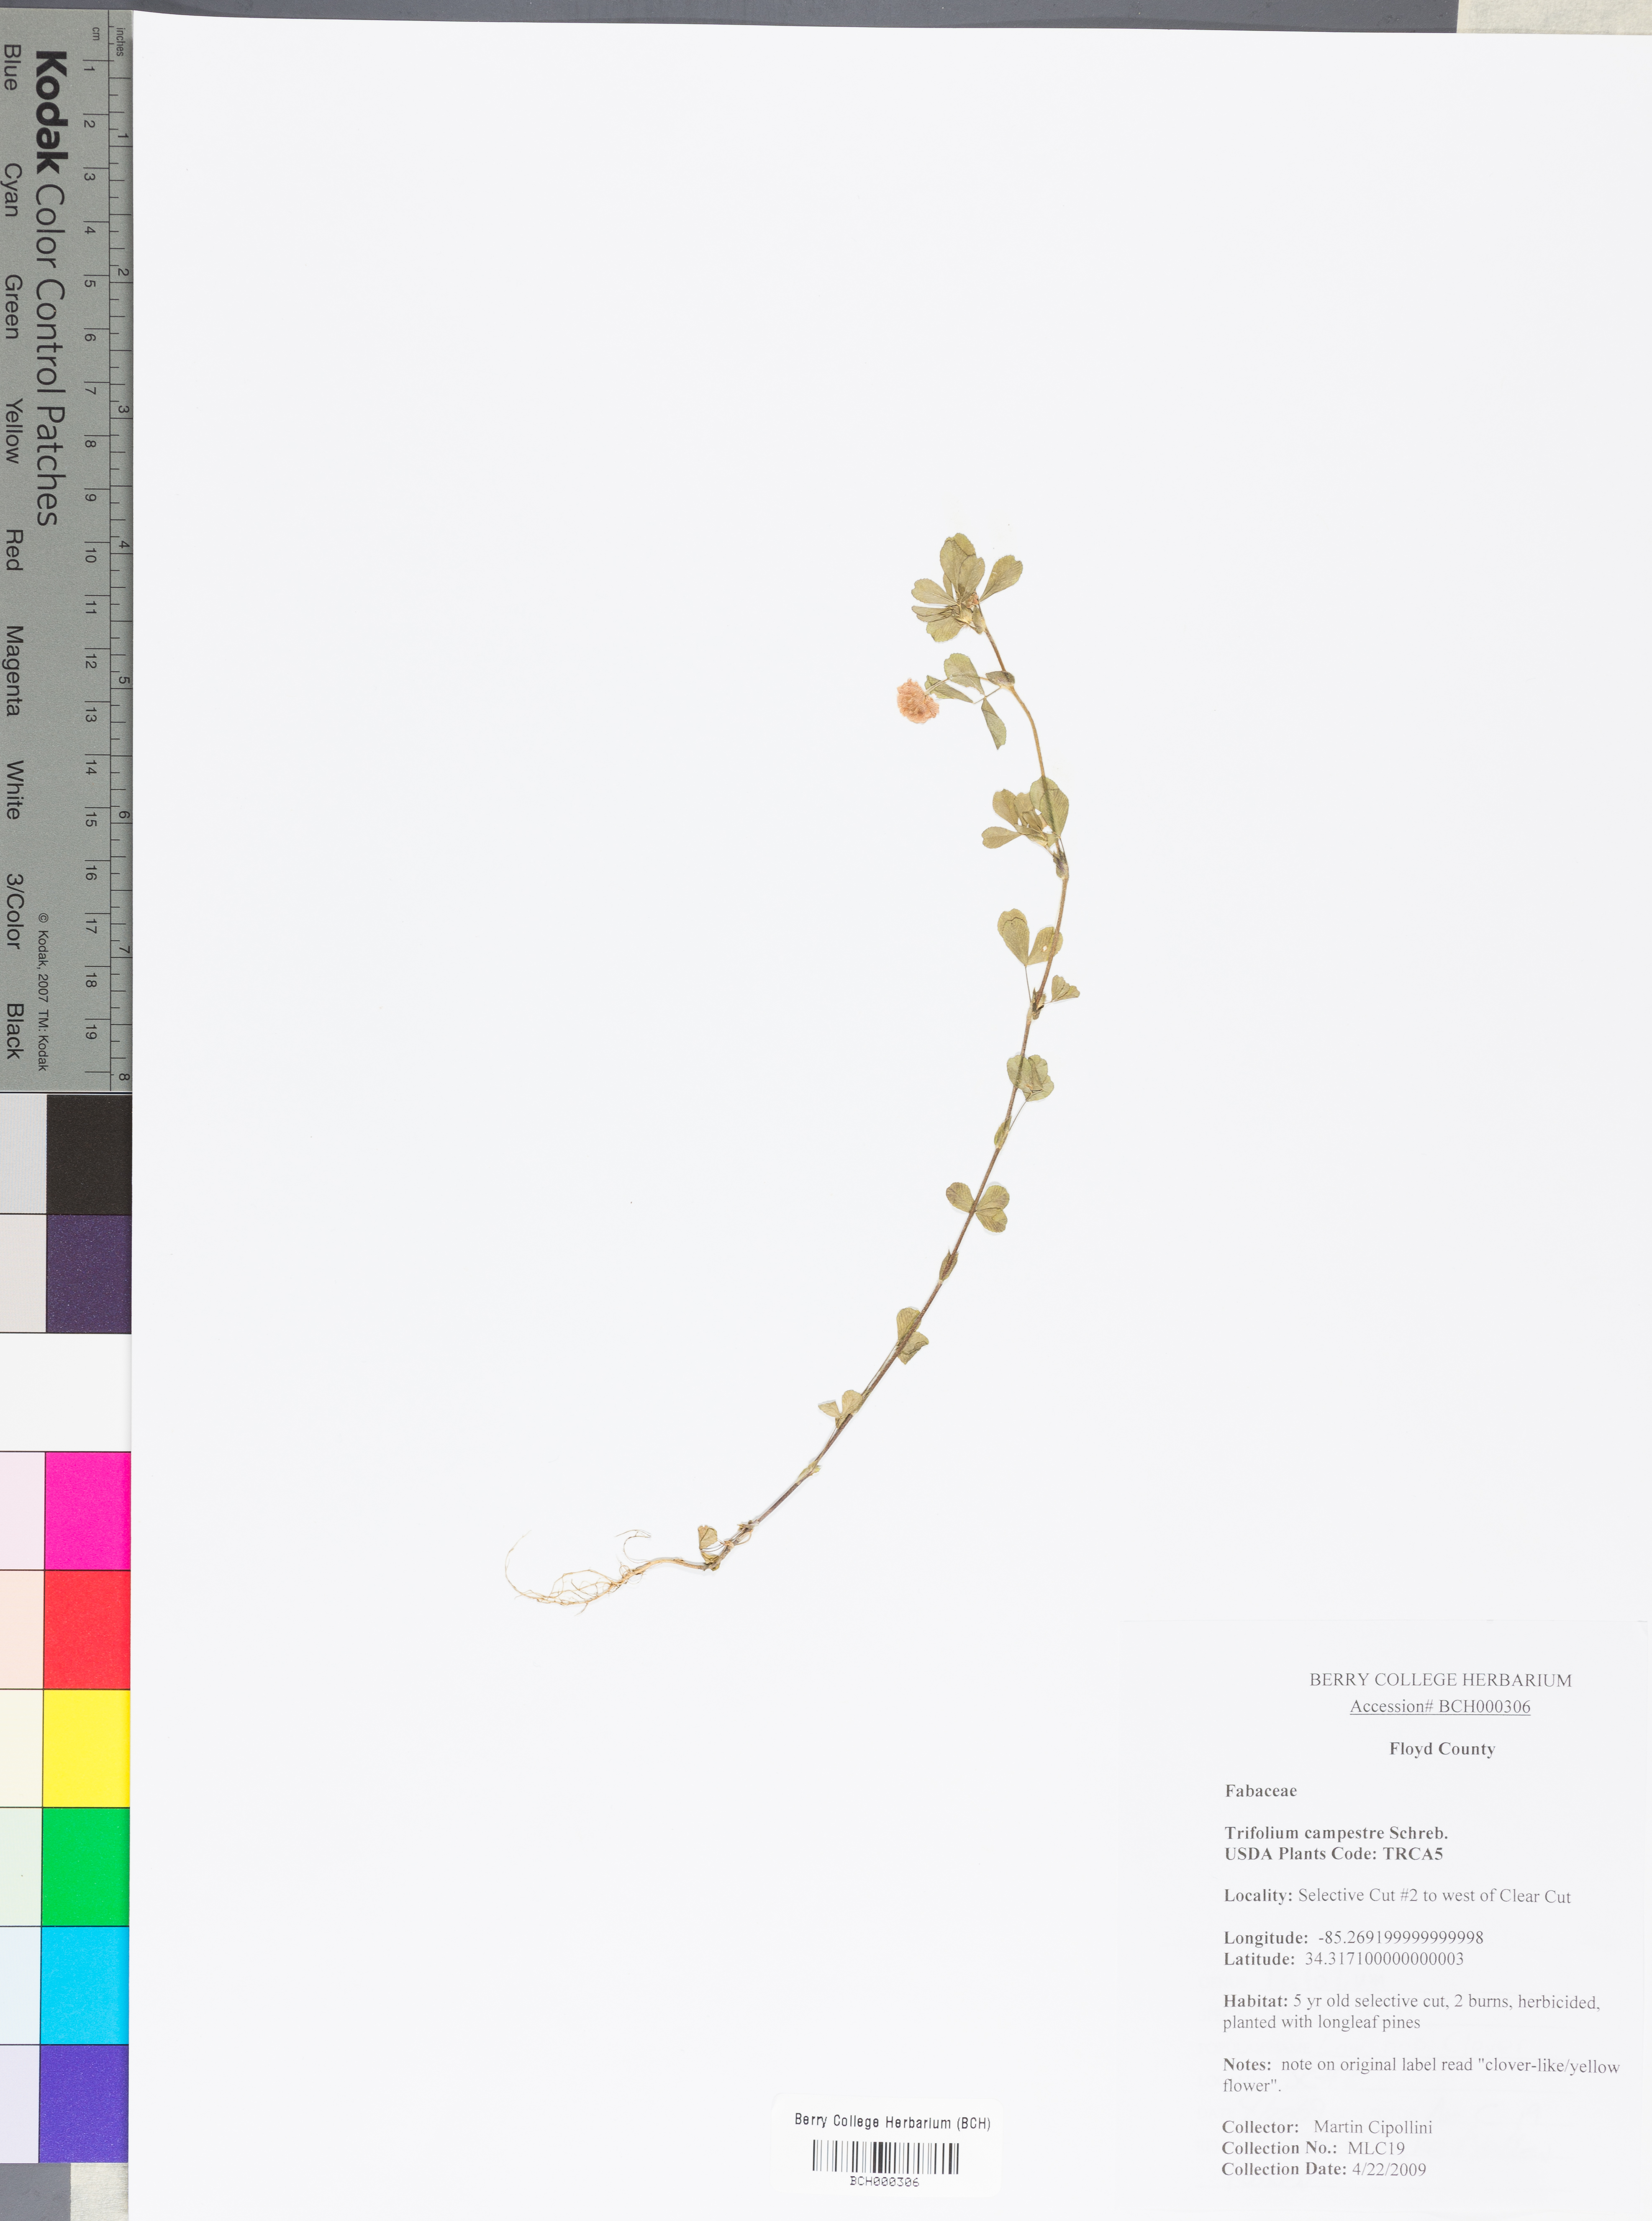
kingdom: Plantae
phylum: Tracheophyta
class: Magnoliopsida
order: Fabales
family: Fabaceae
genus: Trifolium
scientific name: Trifolium campestre
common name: Field clover
